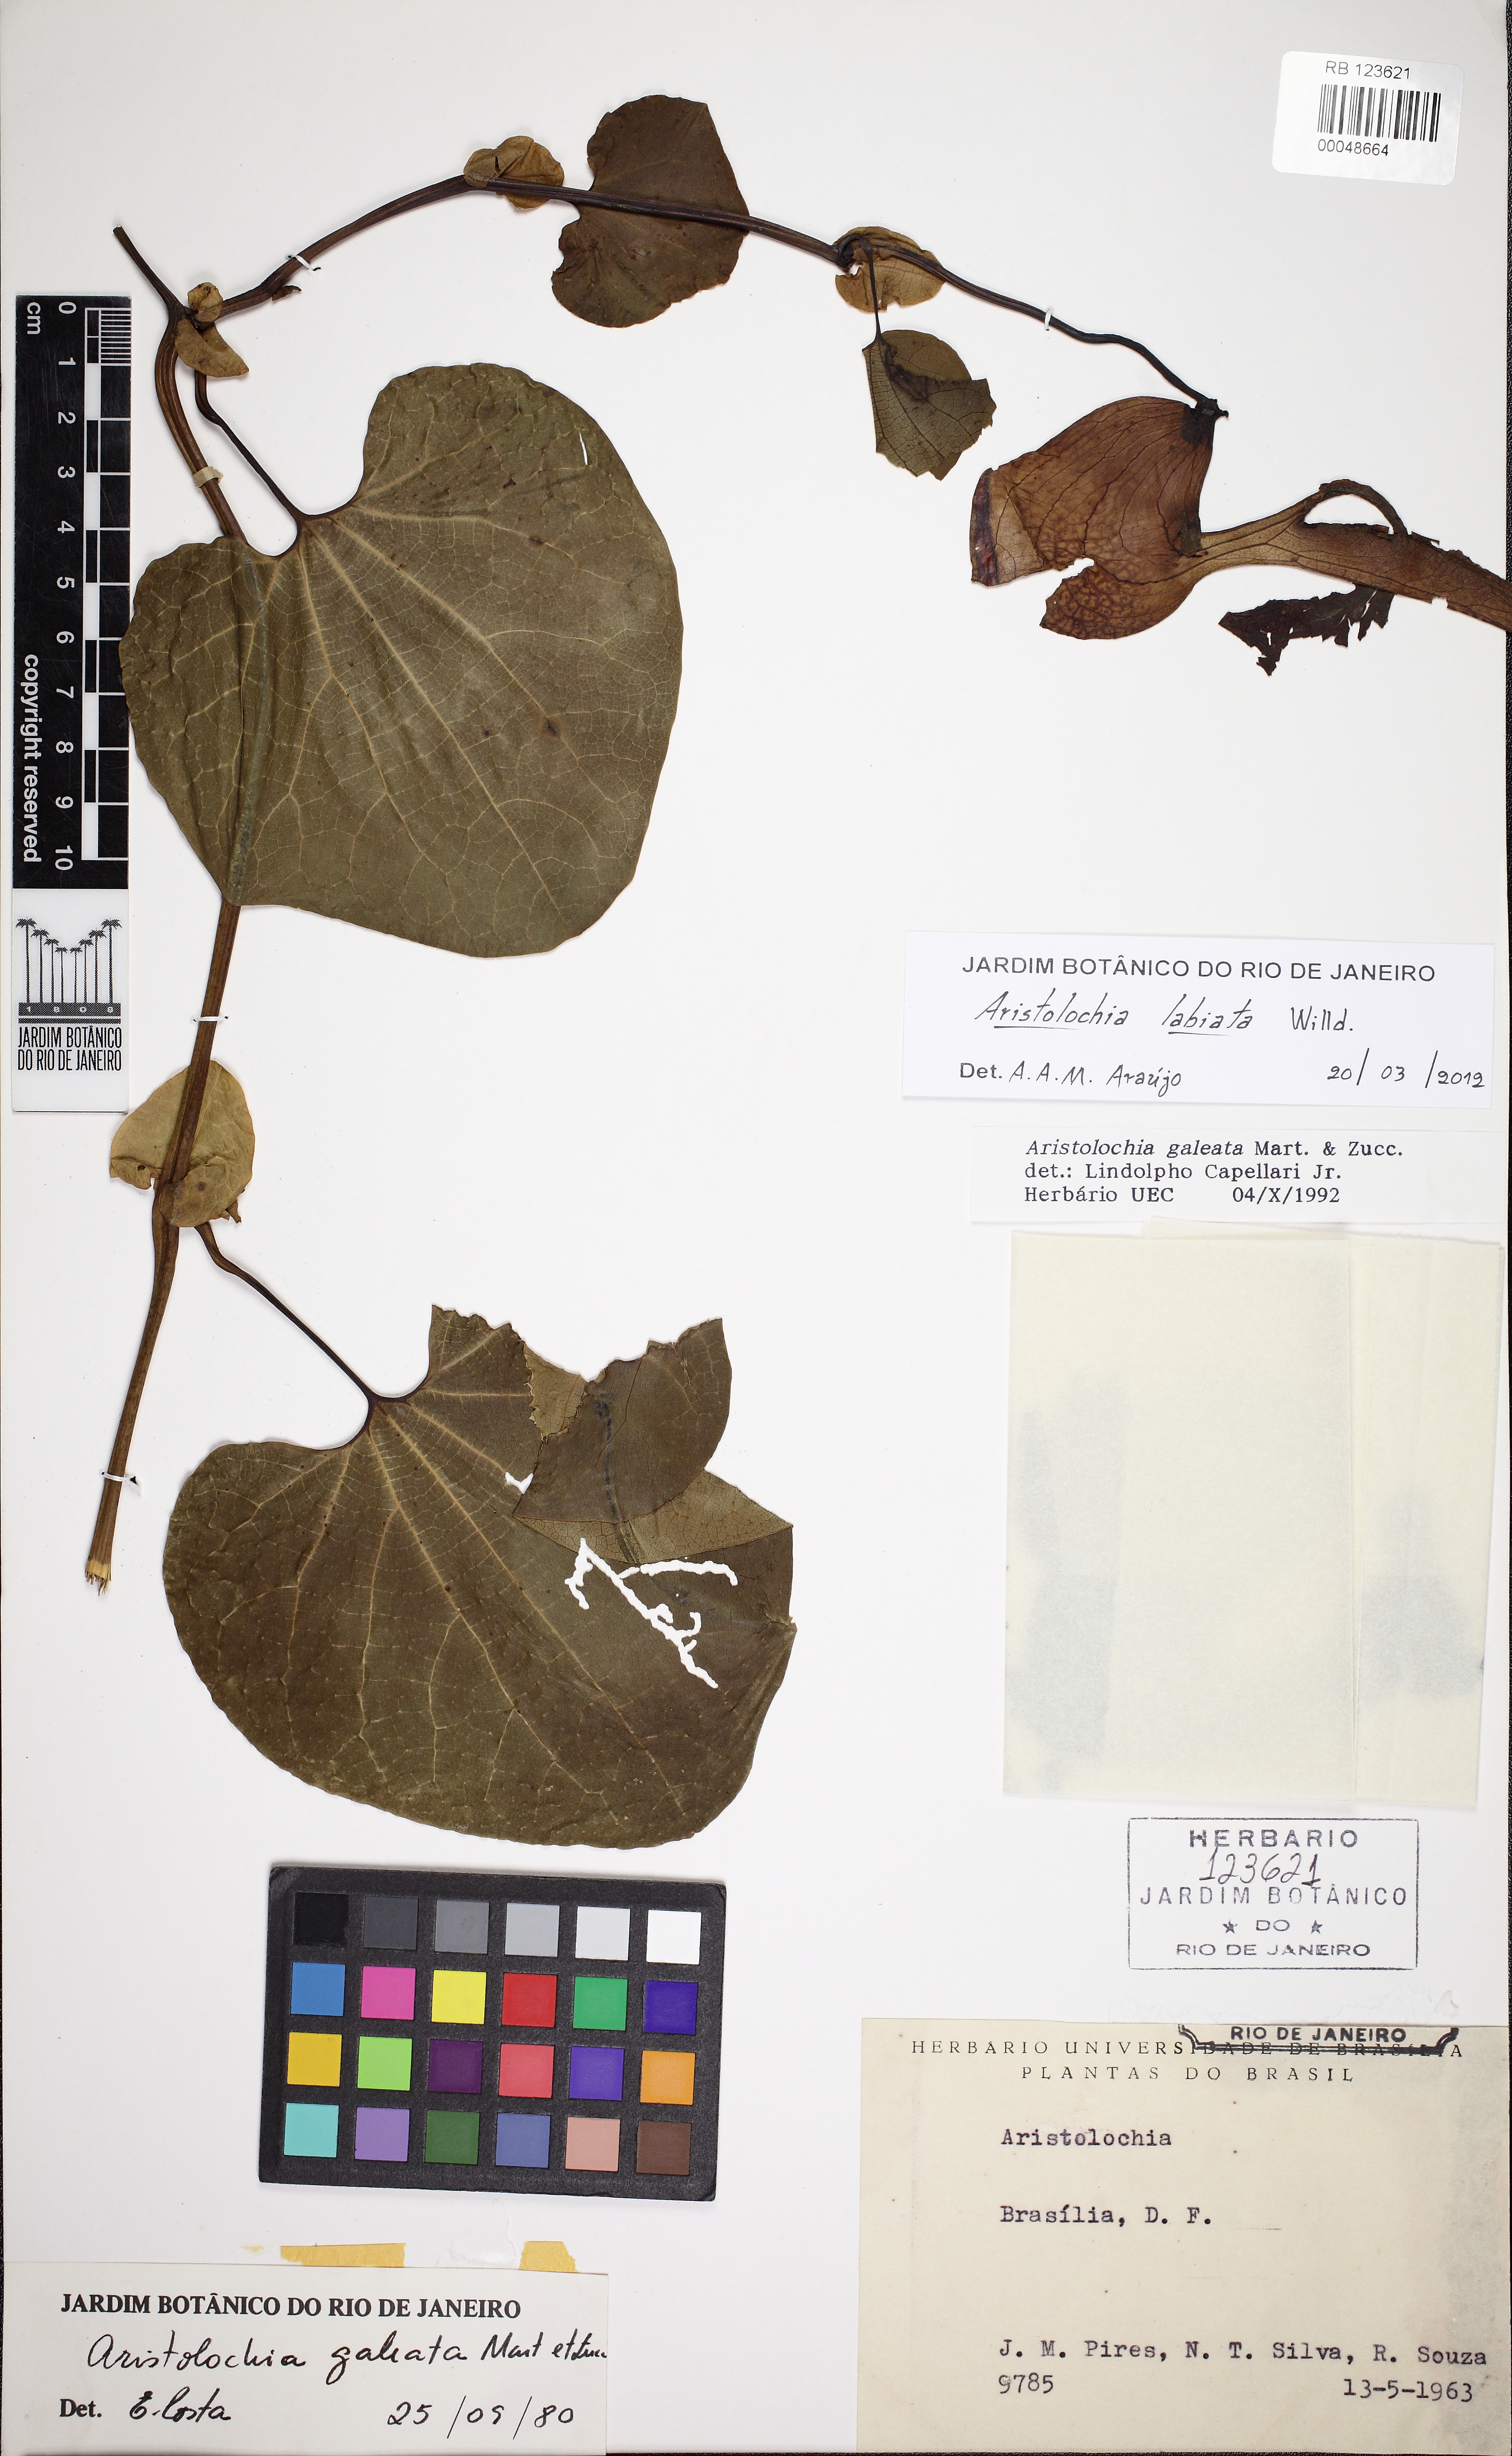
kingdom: Plantae
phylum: Tracheophyta
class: Magnoliopsida
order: Piperales
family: Aristolochiaceae
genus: Aristolochia
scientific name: Aristolochia labiata
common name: Mottled dutchman's pipe
